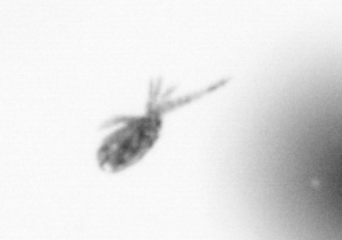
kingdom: Animalia
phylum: Arthropoda
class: Copepoda
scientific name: Copepoda
